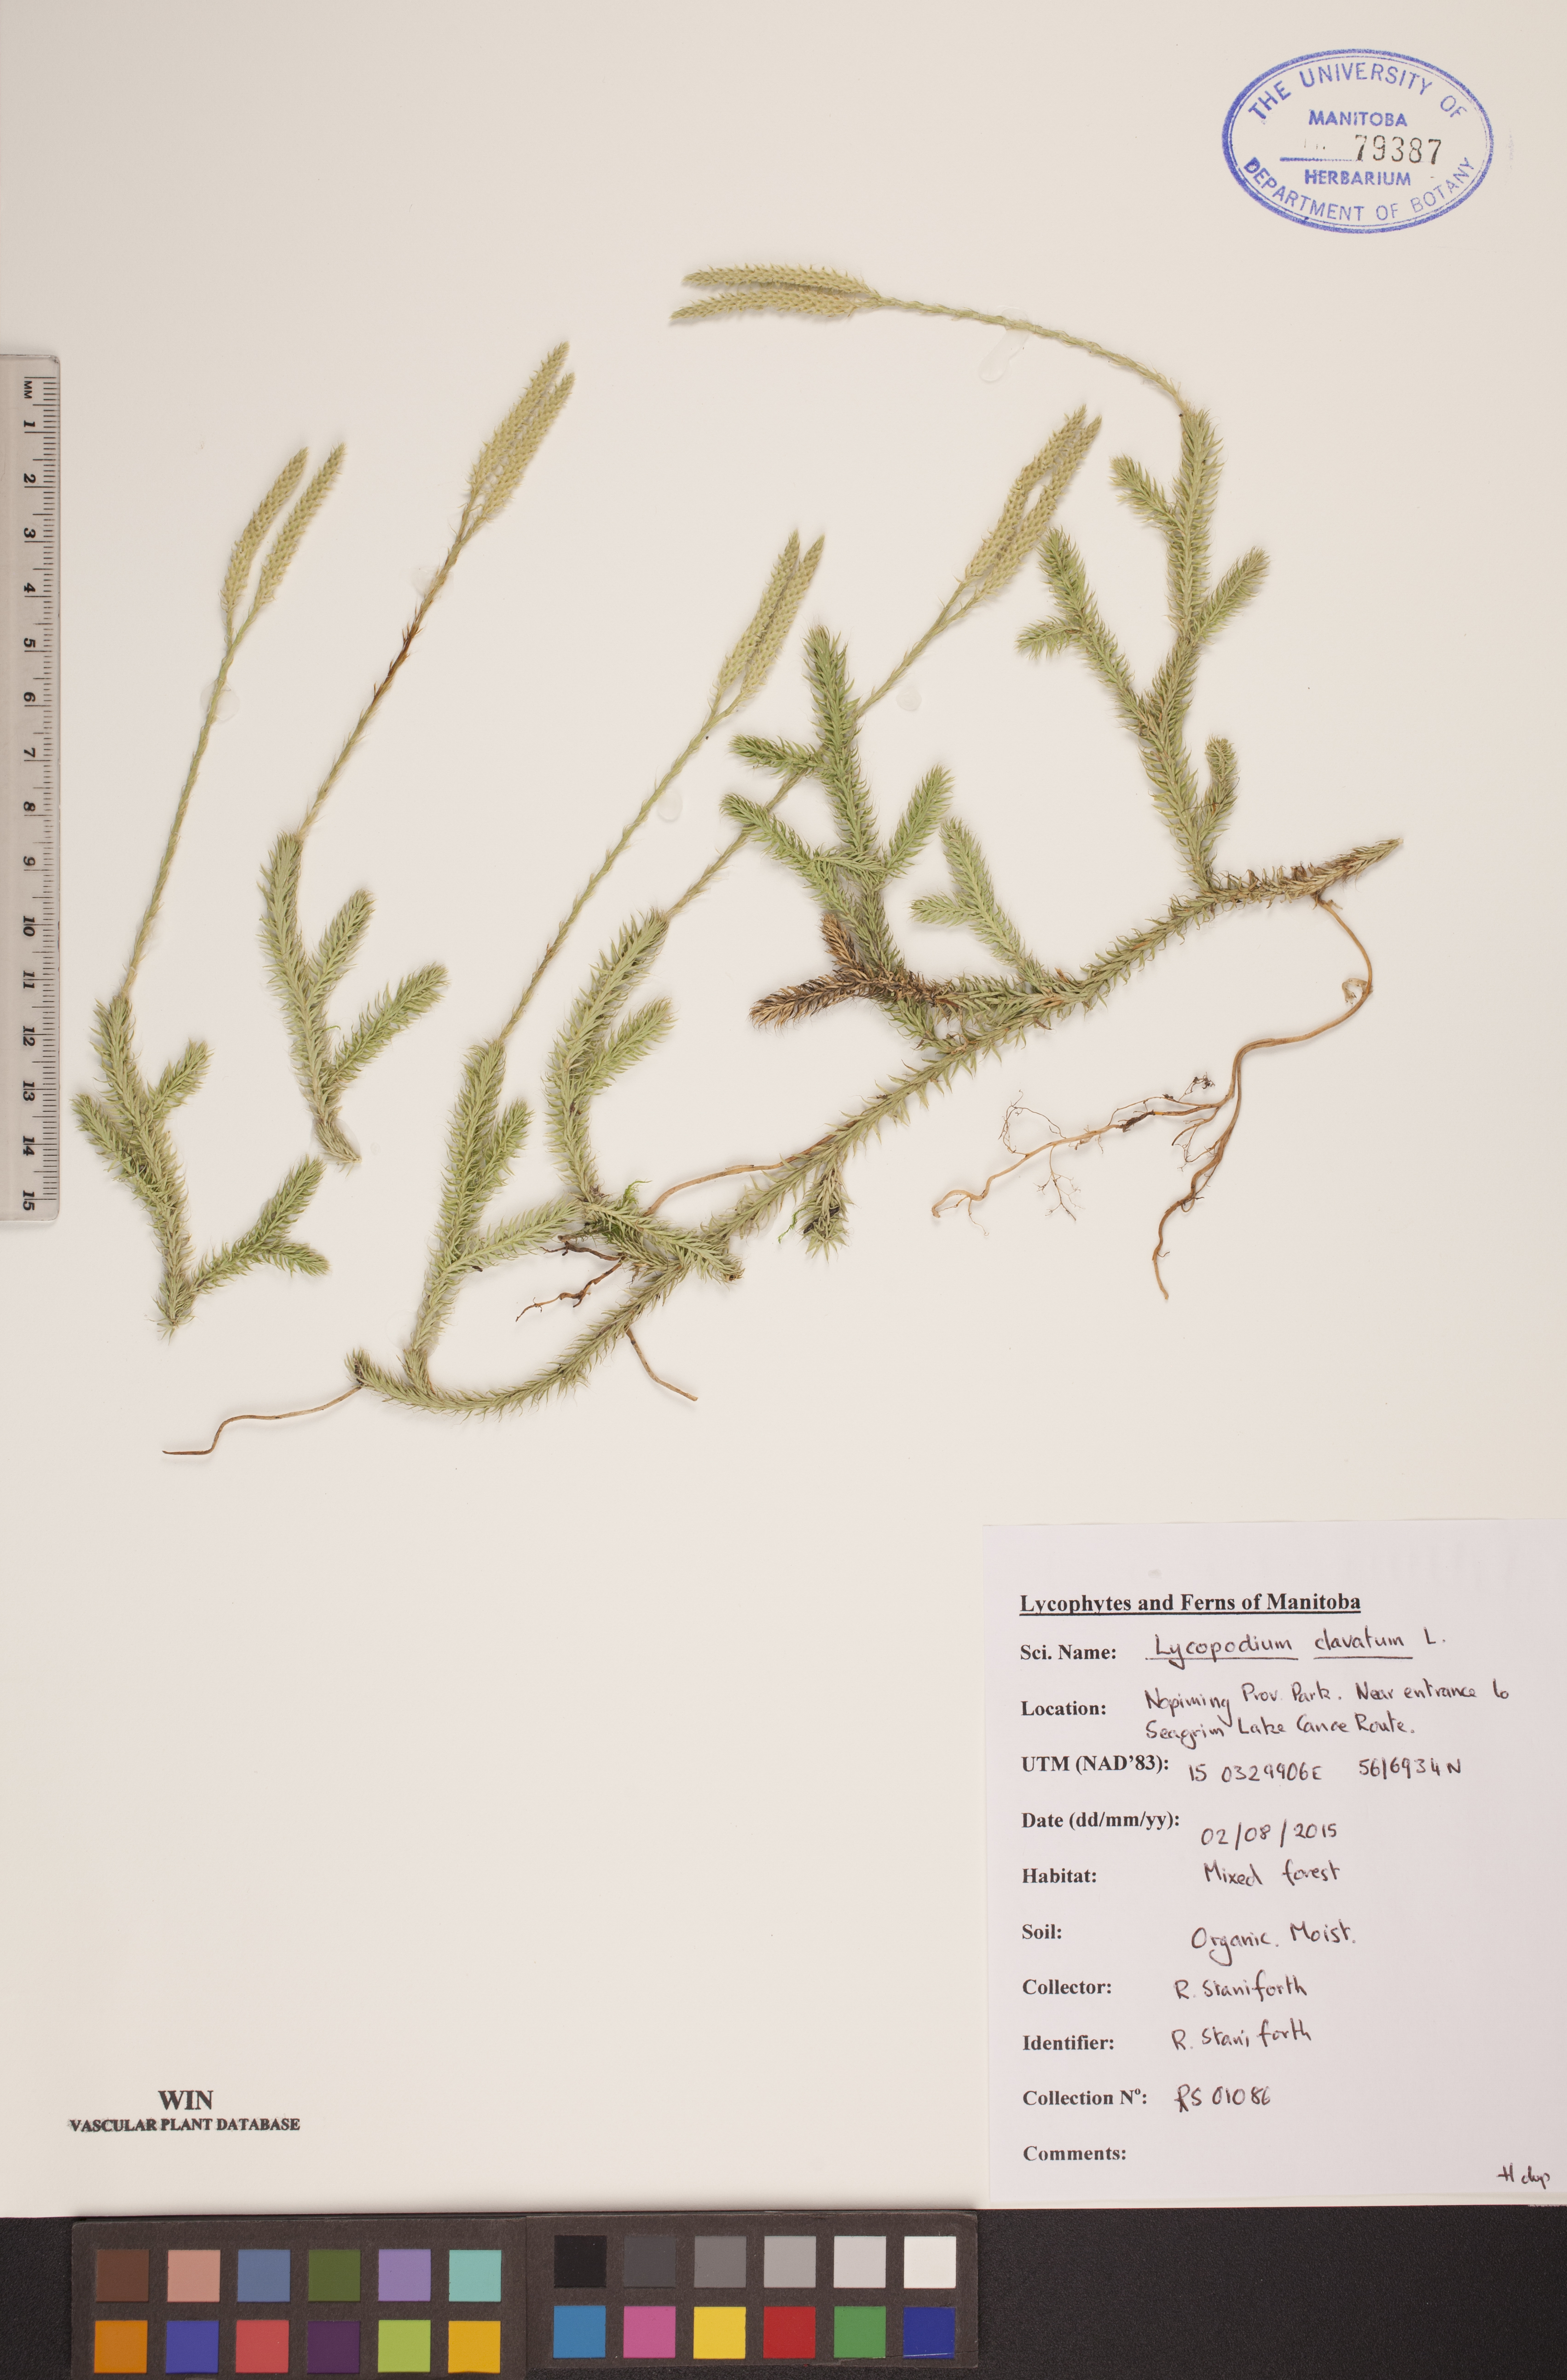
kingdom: Plantae
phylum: Tracheophyta
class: Lycopodiopsida
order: Lycopodiales
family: Lycopodiaceae
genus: Lycopodium
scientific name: Lycopodium clavatum
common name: Stag's-horn clubmoss
